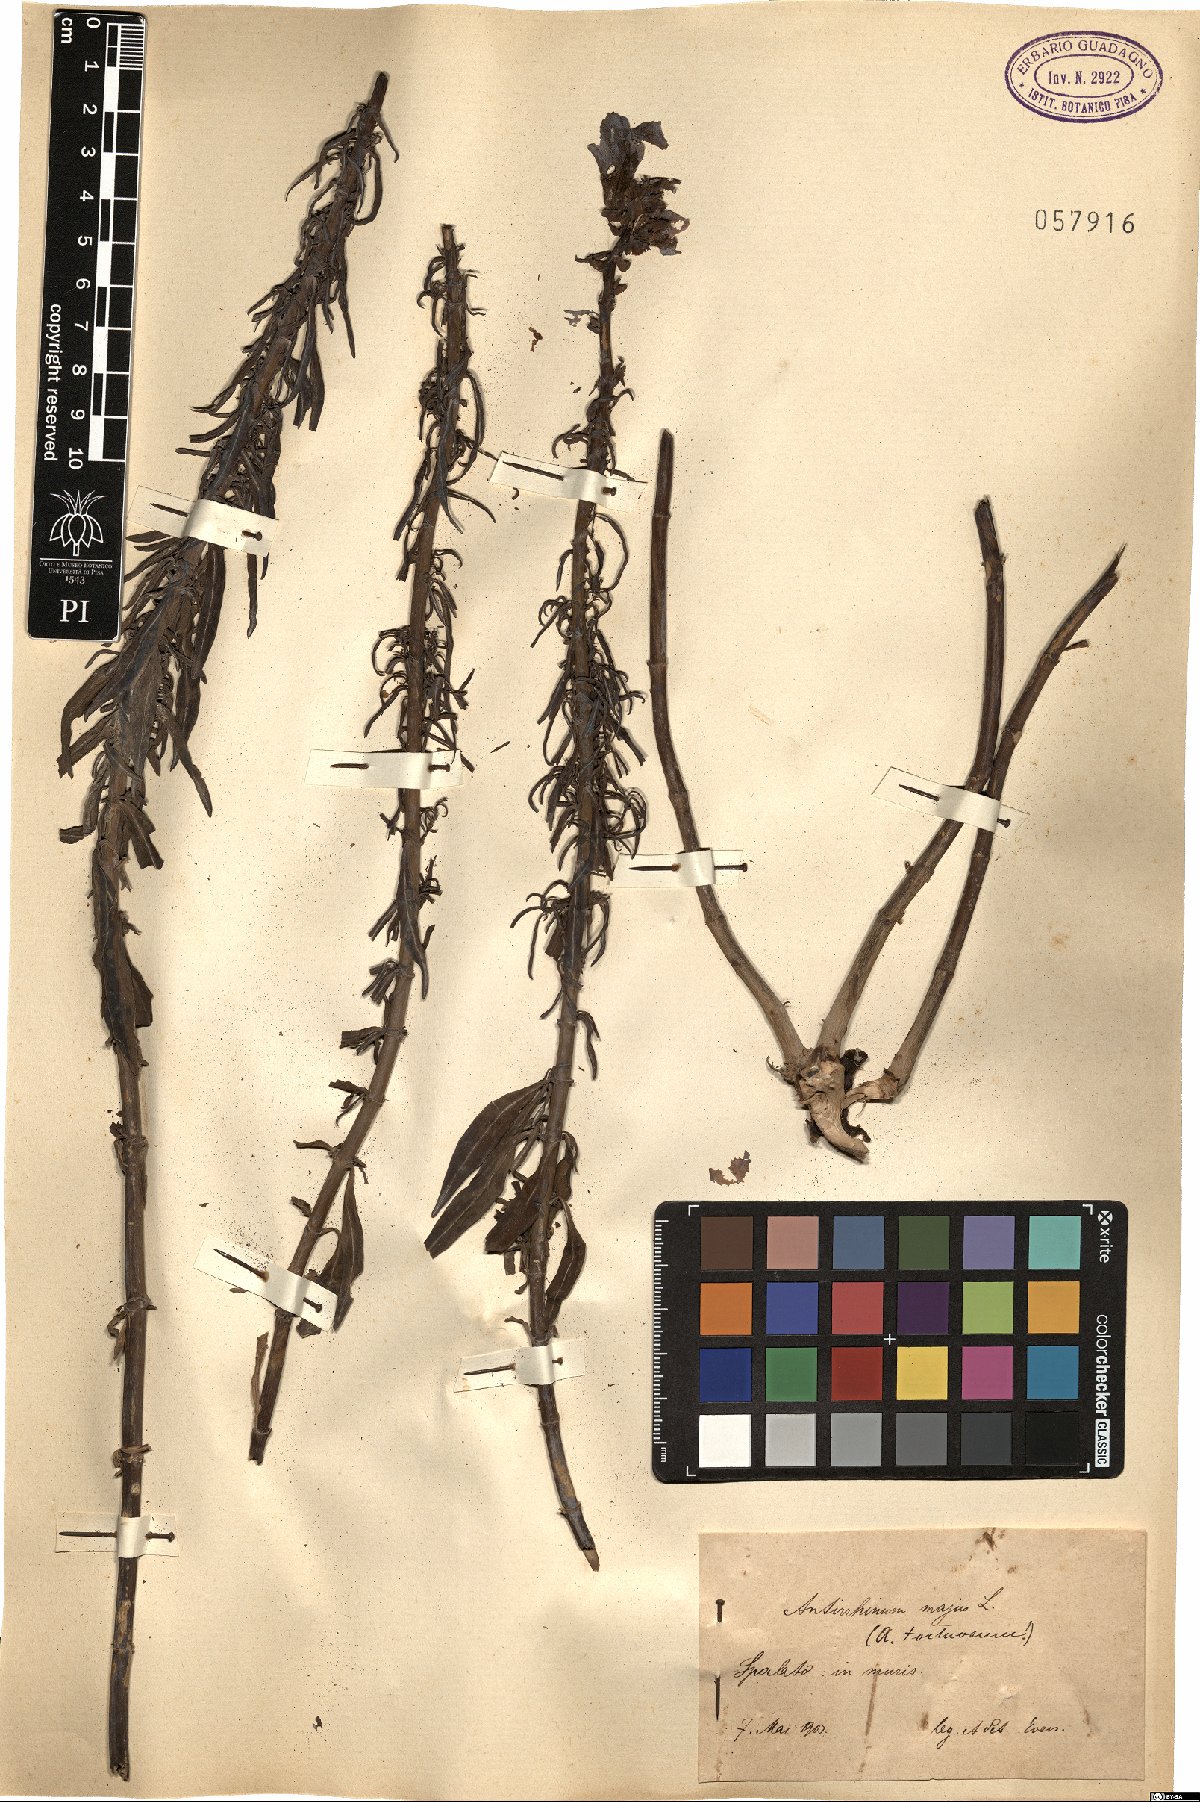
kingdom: Plantae
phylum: Tracheophyta
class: Magnoliopsida
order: Lamiales
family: Plantaginaceae
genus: Antirrhinum
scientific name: Antirrhinum tortuosum
